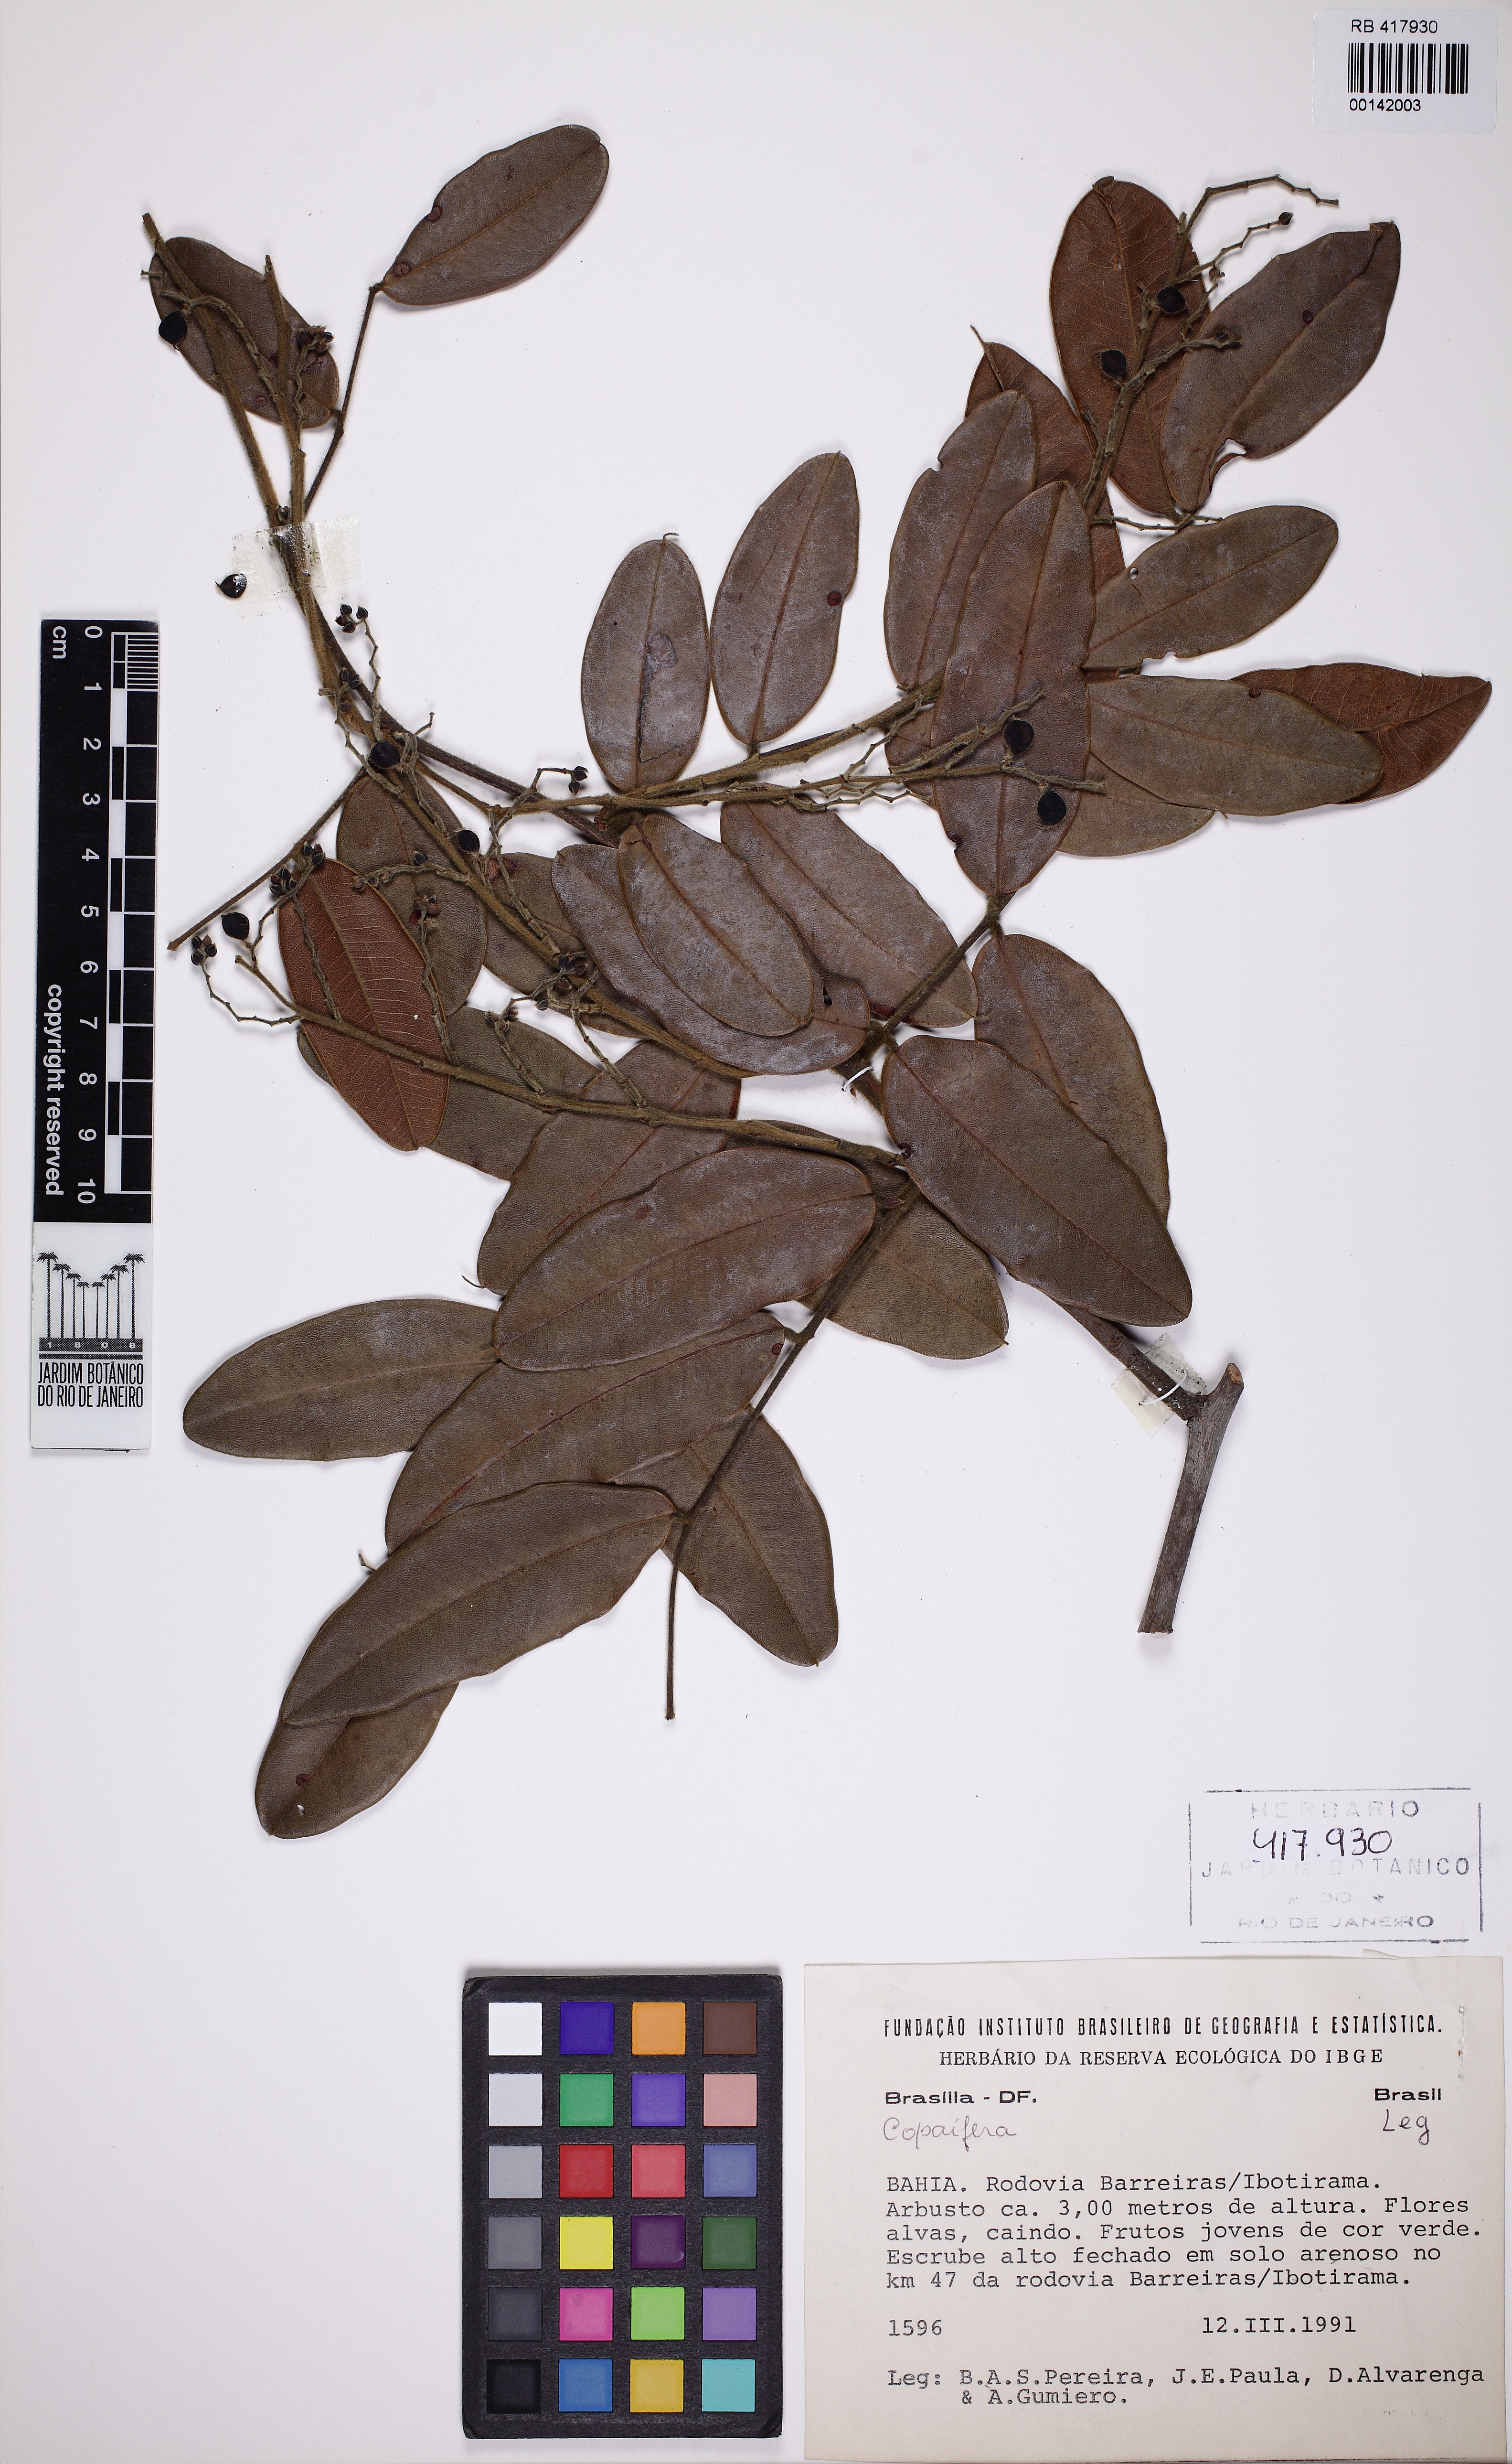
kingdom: Plantae
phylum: Tracheophyta
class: Magnoliopsida
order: Fabales
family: Fabaceae
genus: Copaifera
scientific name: Copaifera
